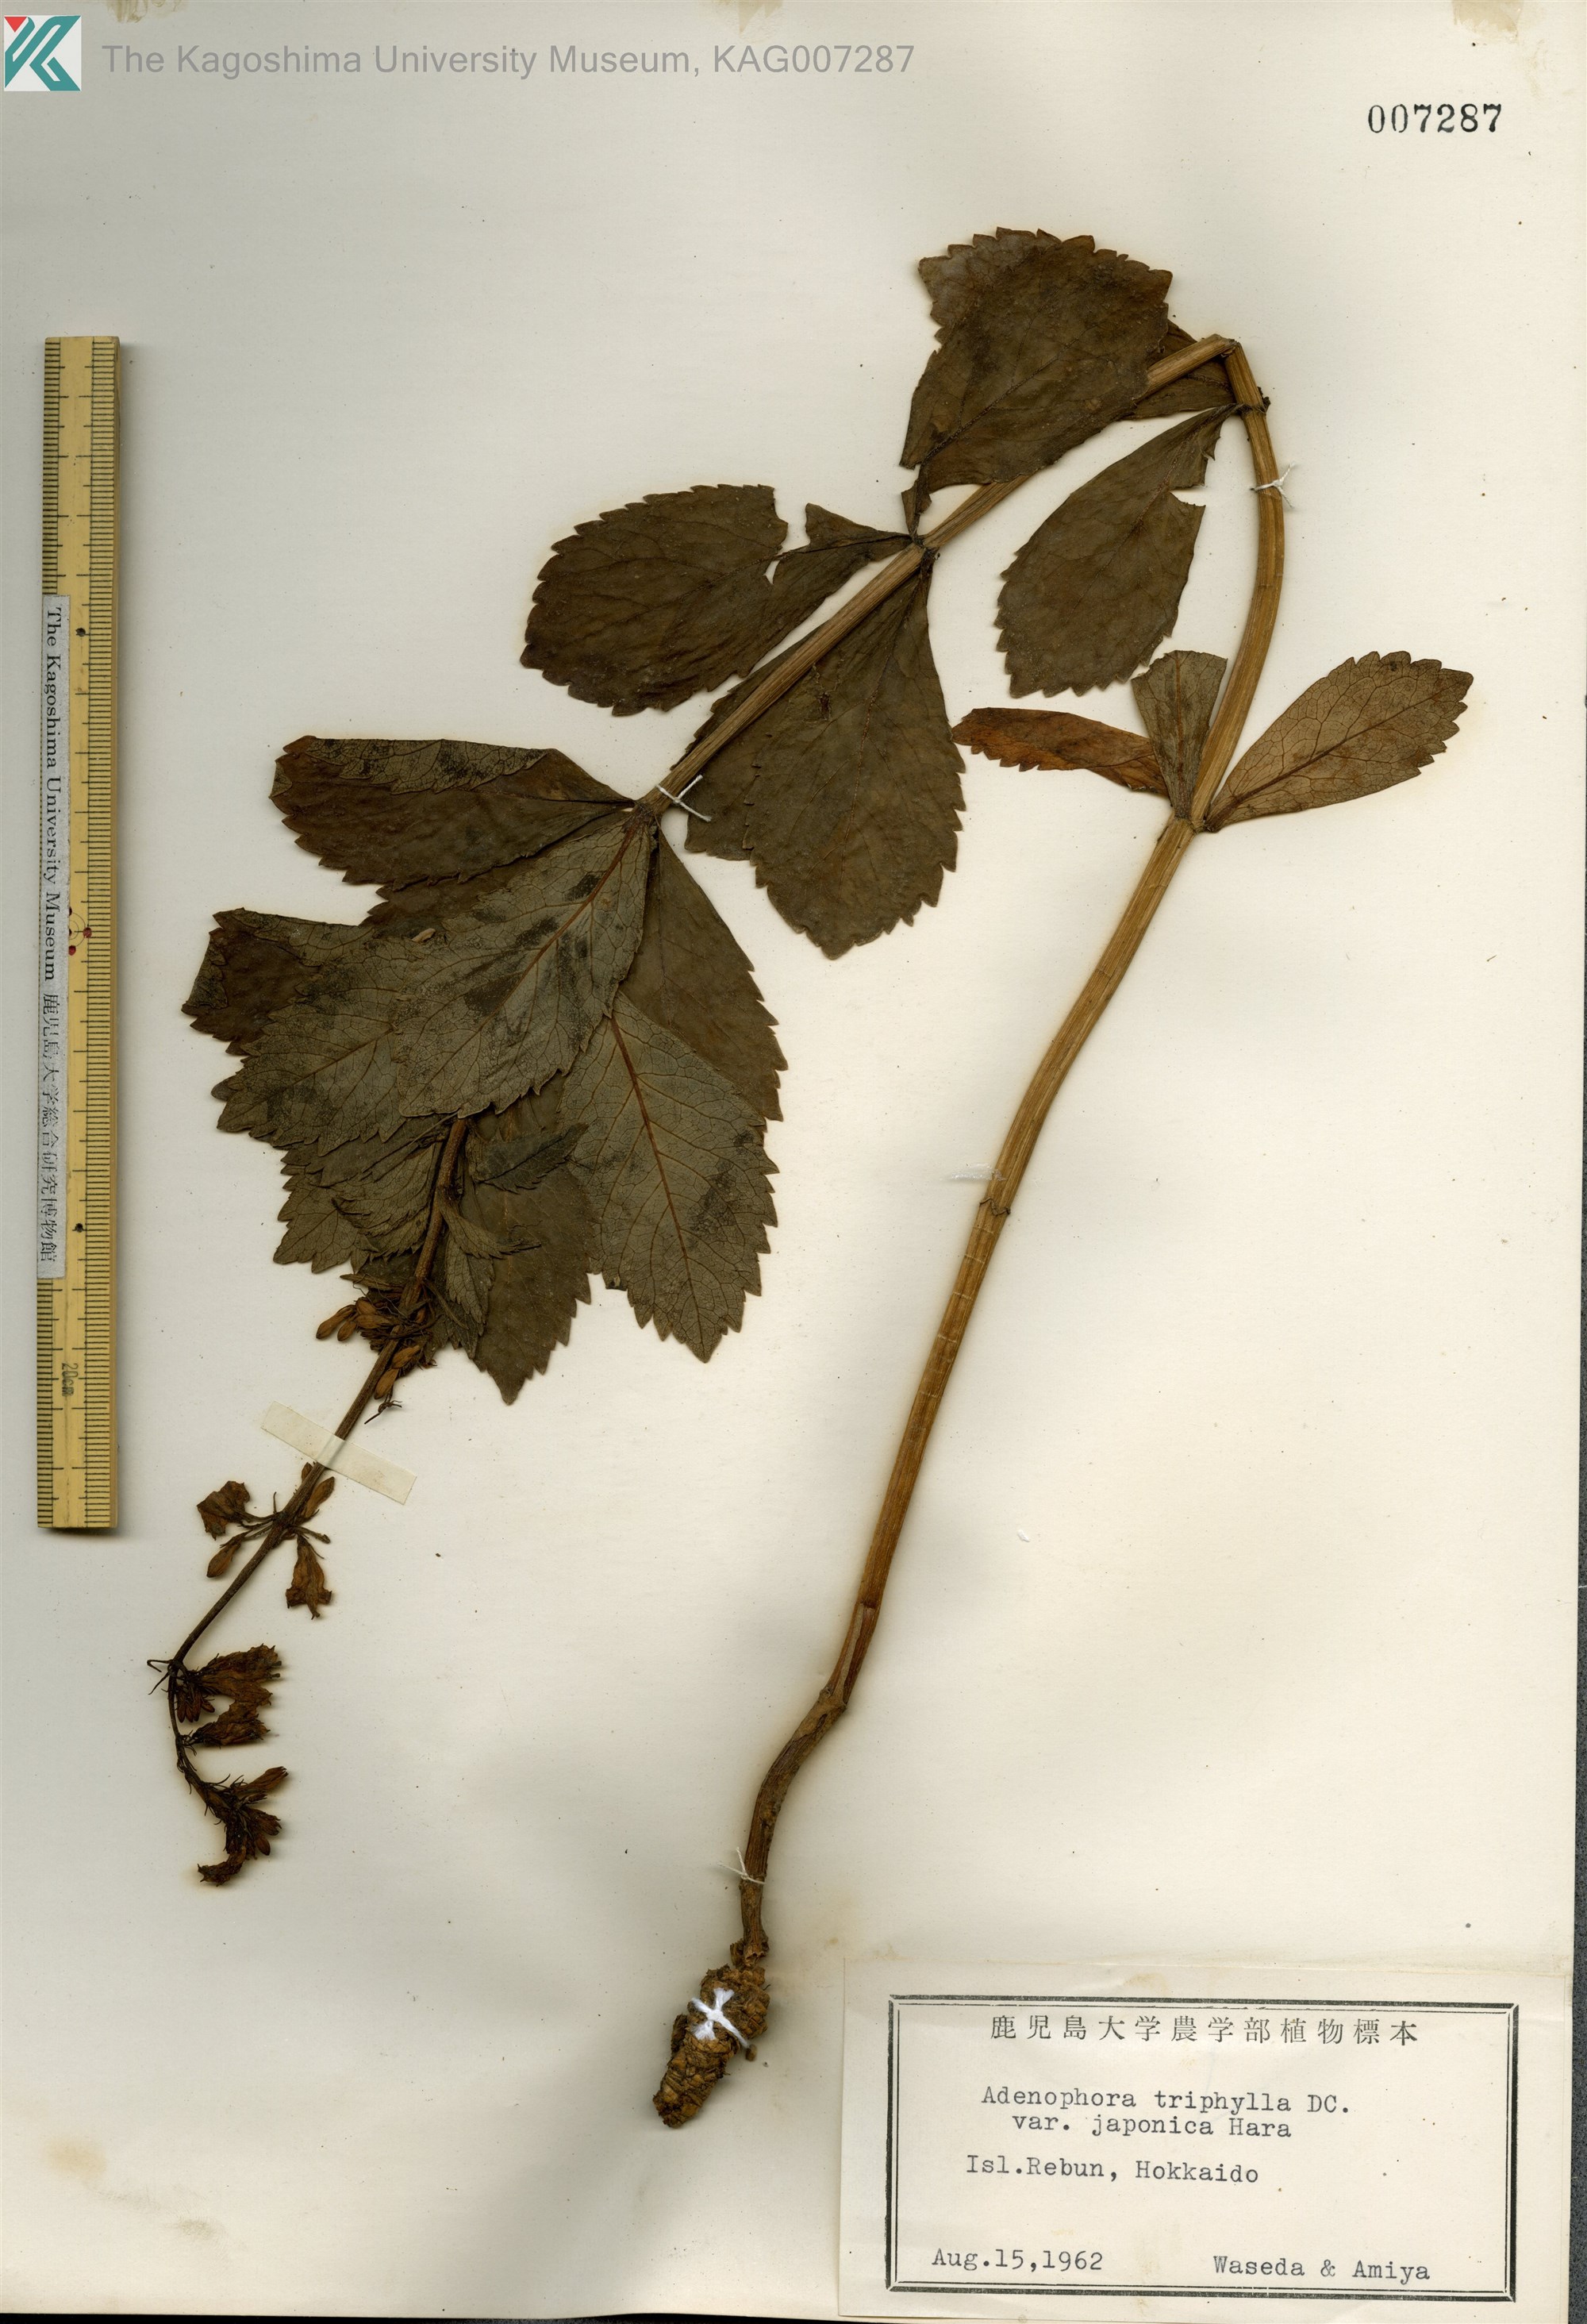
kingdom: Plantae
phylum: Tracheophyta
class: Magnoliopsida
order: Asterales
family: Campanulaceae
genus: Adenophora
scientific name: Adenophora triphylla
